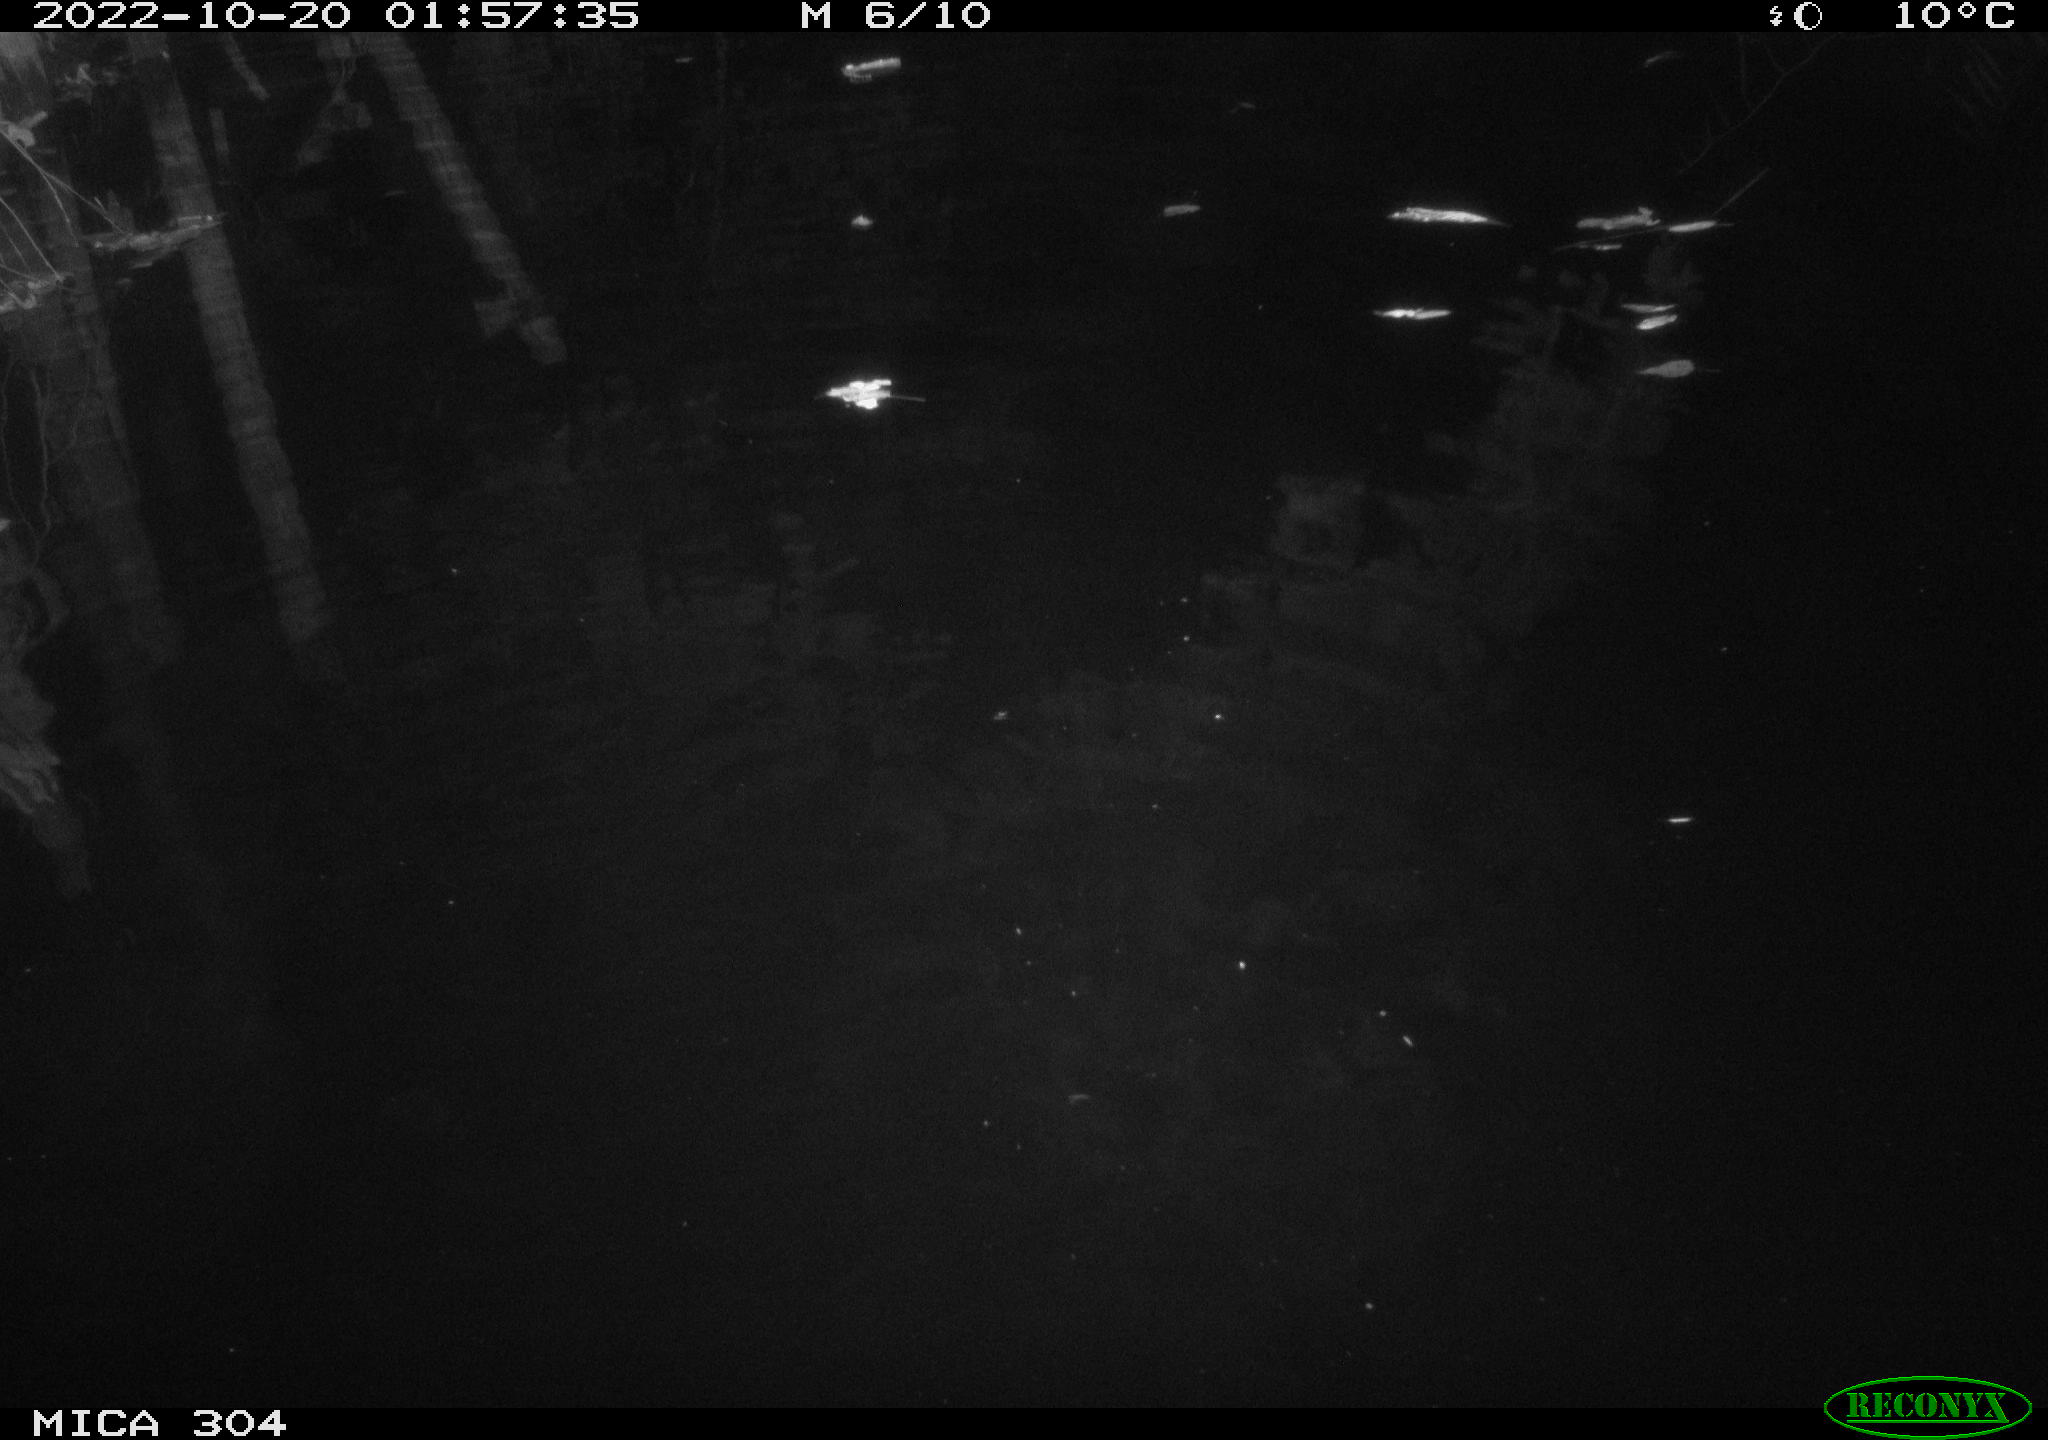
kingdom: Animalia
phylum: Chordata
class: Mammalia
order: Rodentia
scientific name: Rodentia
